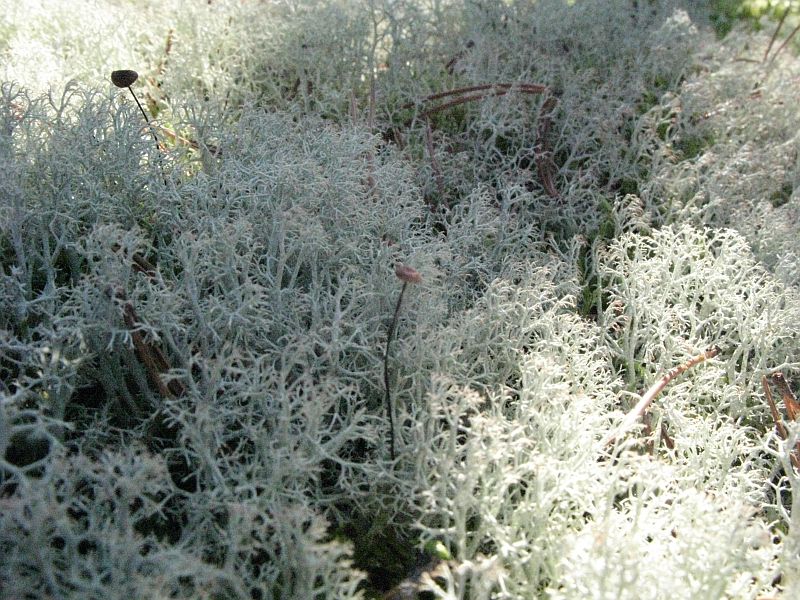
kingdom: Fungi
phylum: Basidiomycota
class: Agaricomycetes
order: Agaricales
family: Omphalotaceae
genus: Gymnopus
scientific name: Gymnopus androsaceus
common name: trådstokket fladhat
